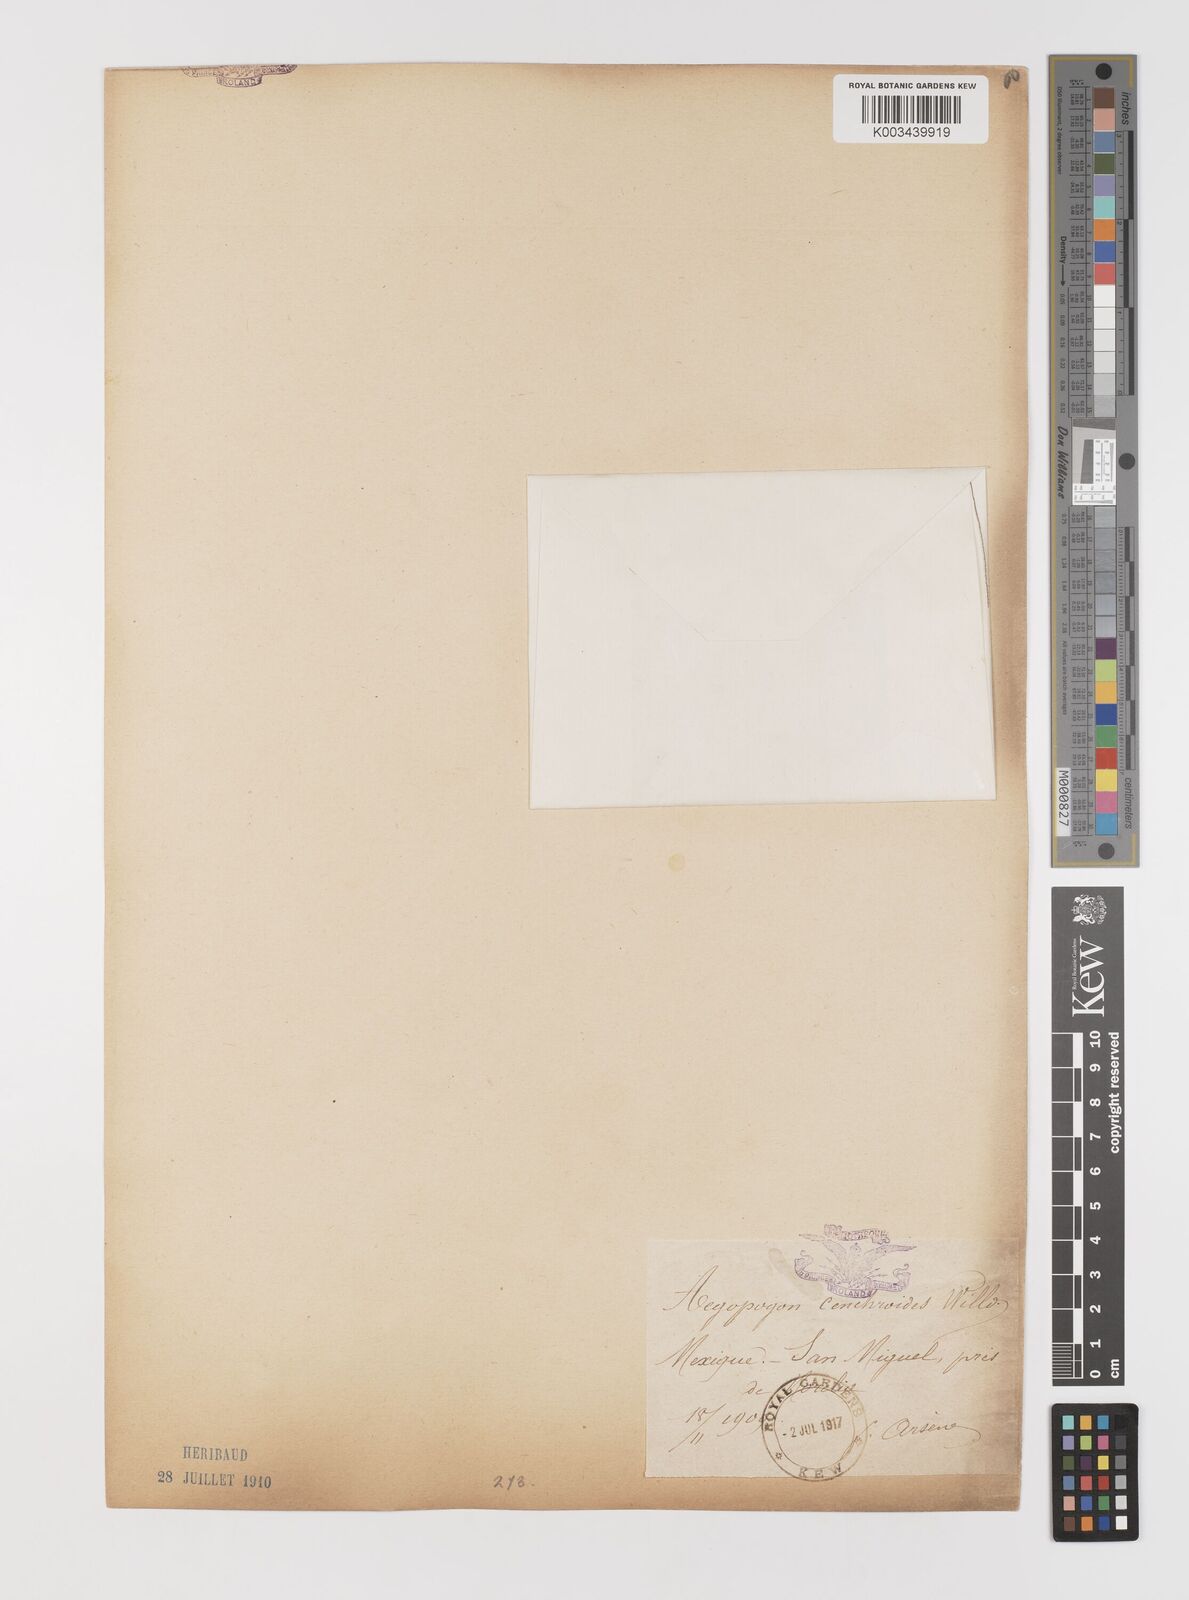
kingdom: Plantae
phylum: Tracheophyta
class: Liliopsida
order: Poales
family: Poaceae
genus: Muhlenbergia
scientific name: Muhlenbergia uniseta
